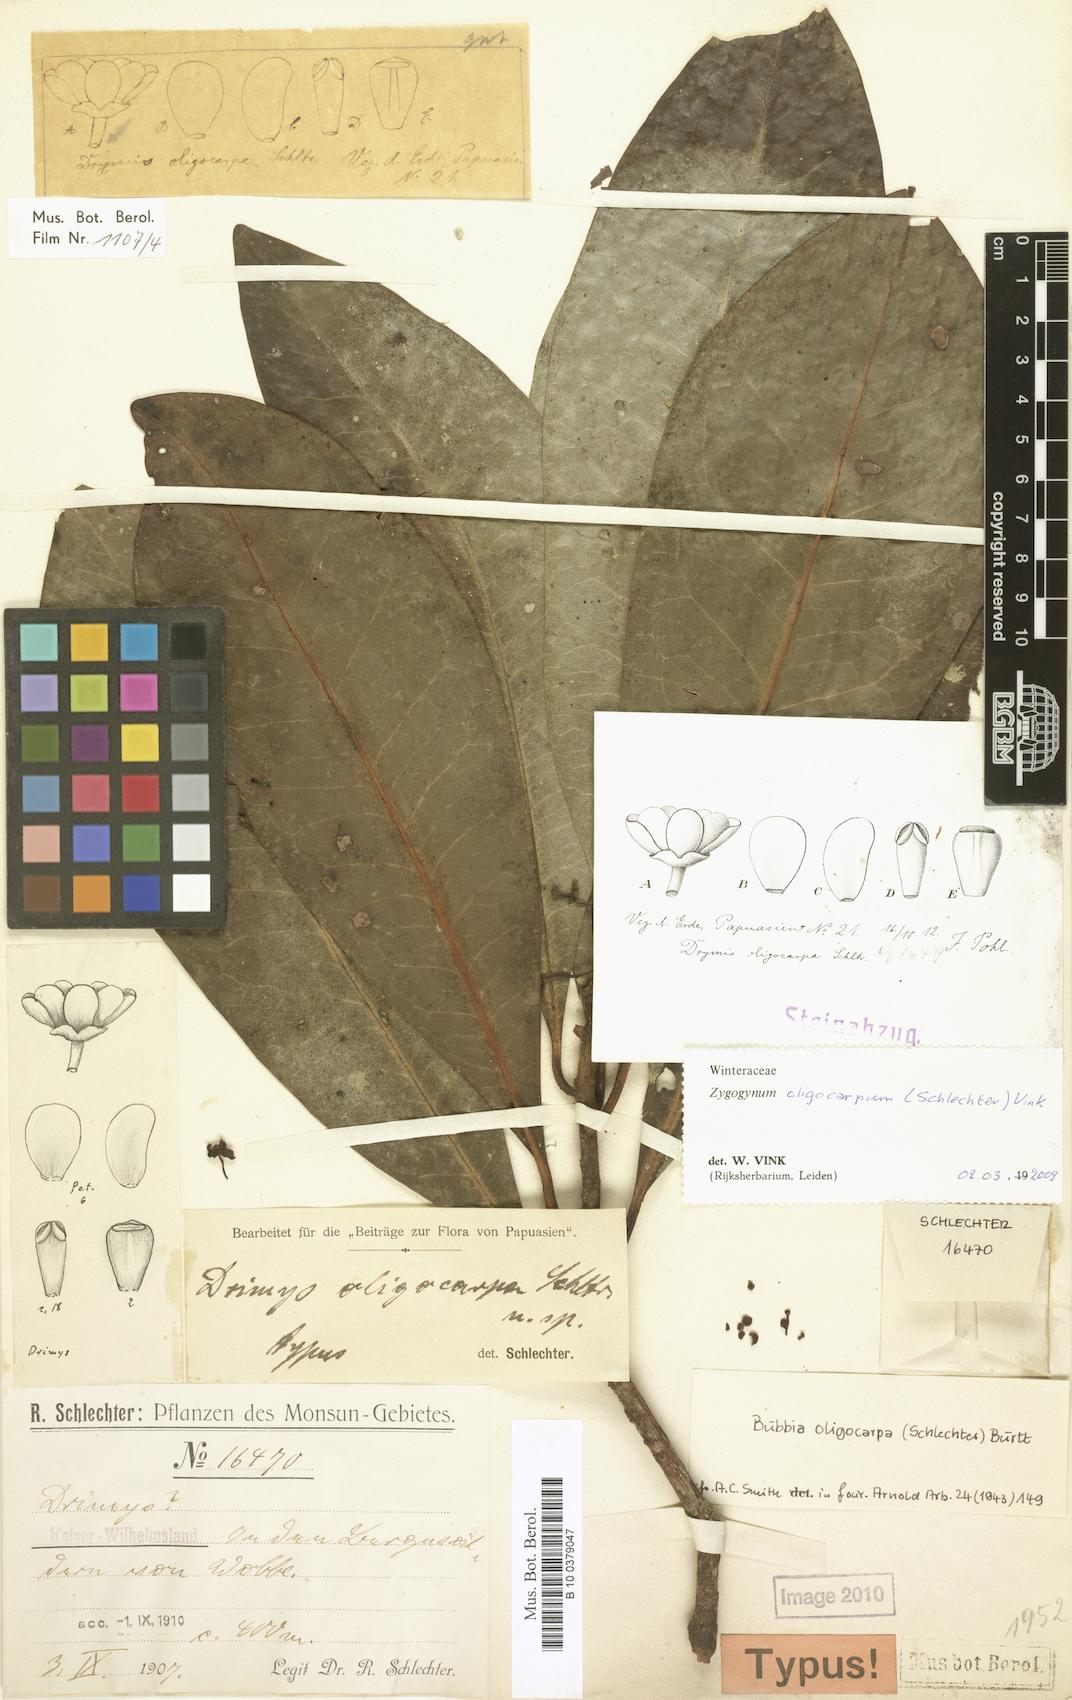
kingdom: Plantae
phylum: Tracheophyta
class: Magnoliopsida
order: Canellales
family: Winteraceae
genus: Zygogynum
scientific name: Zygogynum oligocarpum
